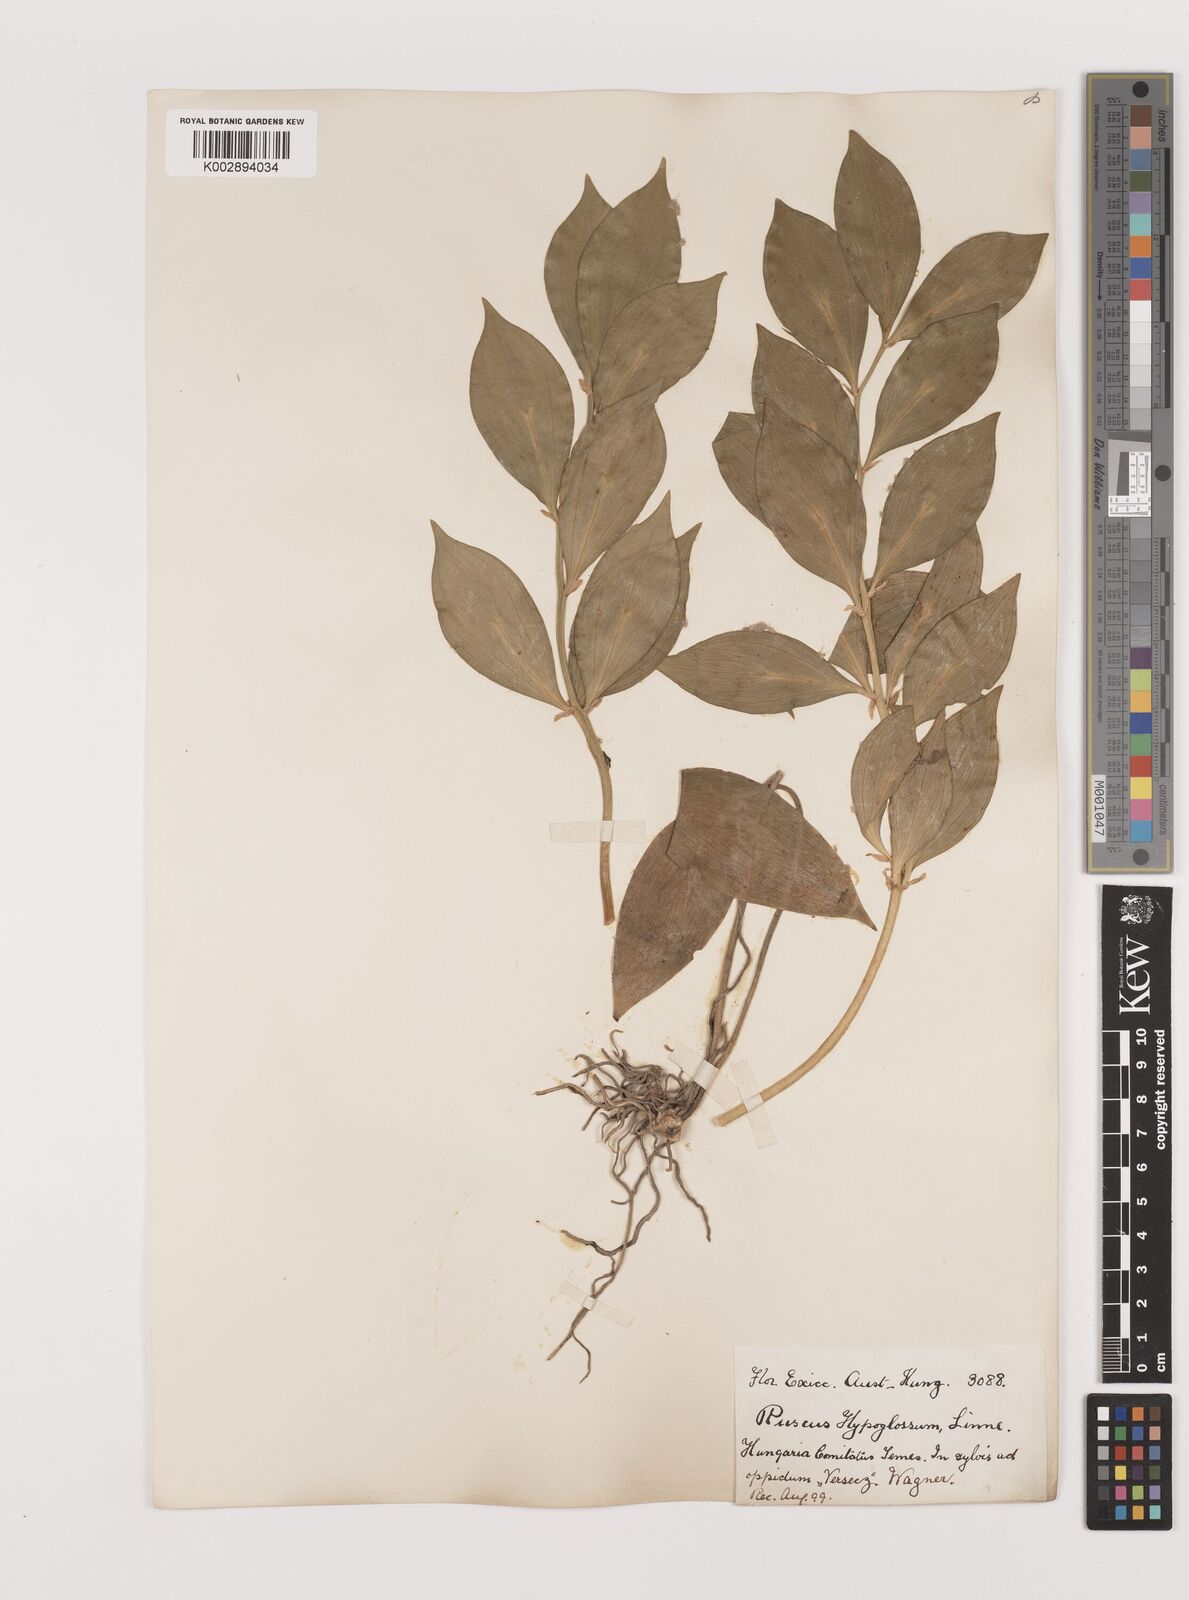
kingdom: Plantae
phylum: Tracheophyta
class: Liliopsida
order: Asparagales
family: Asparagaceae
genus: Ruscus
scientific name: Ruscus hypoglossum
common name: Spineless butcher's-broom
